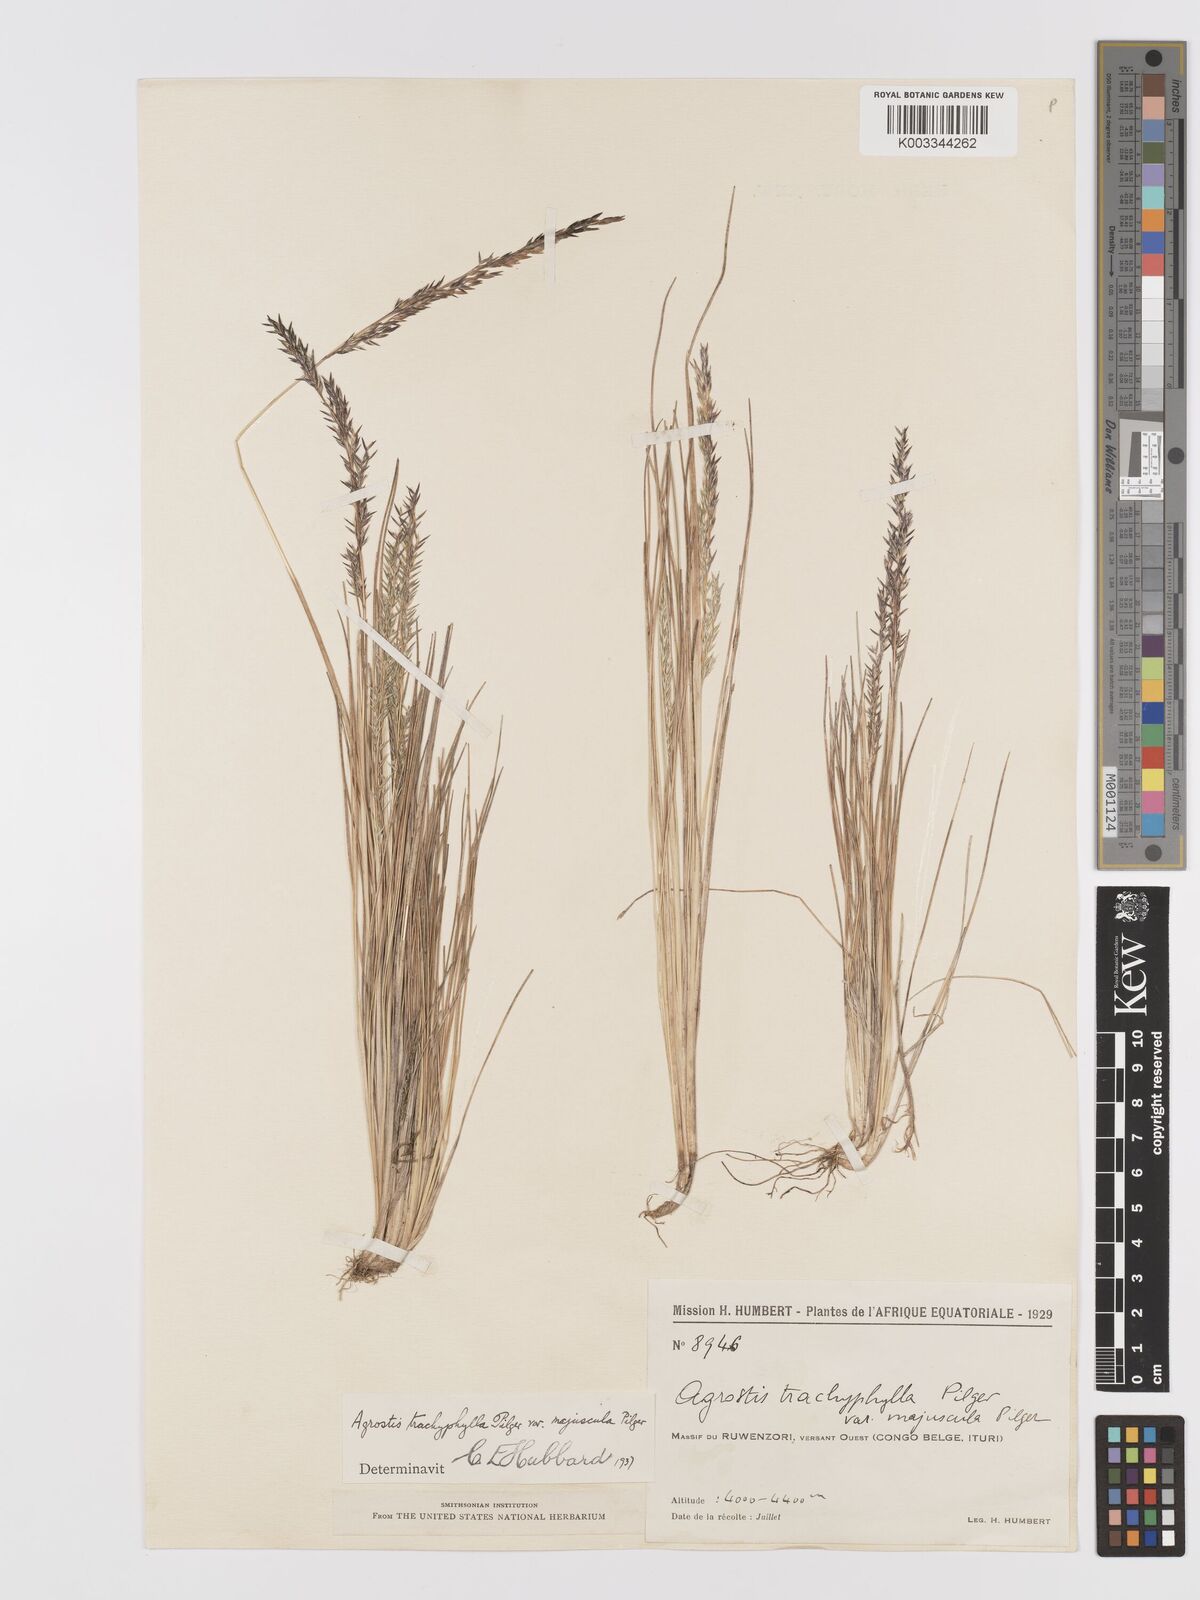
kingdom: Plantae
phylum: Tracheophyta
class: Liliopsida
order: Poales
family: Poaceae
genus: Agrostis
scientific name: Agrostis trachyphylla
